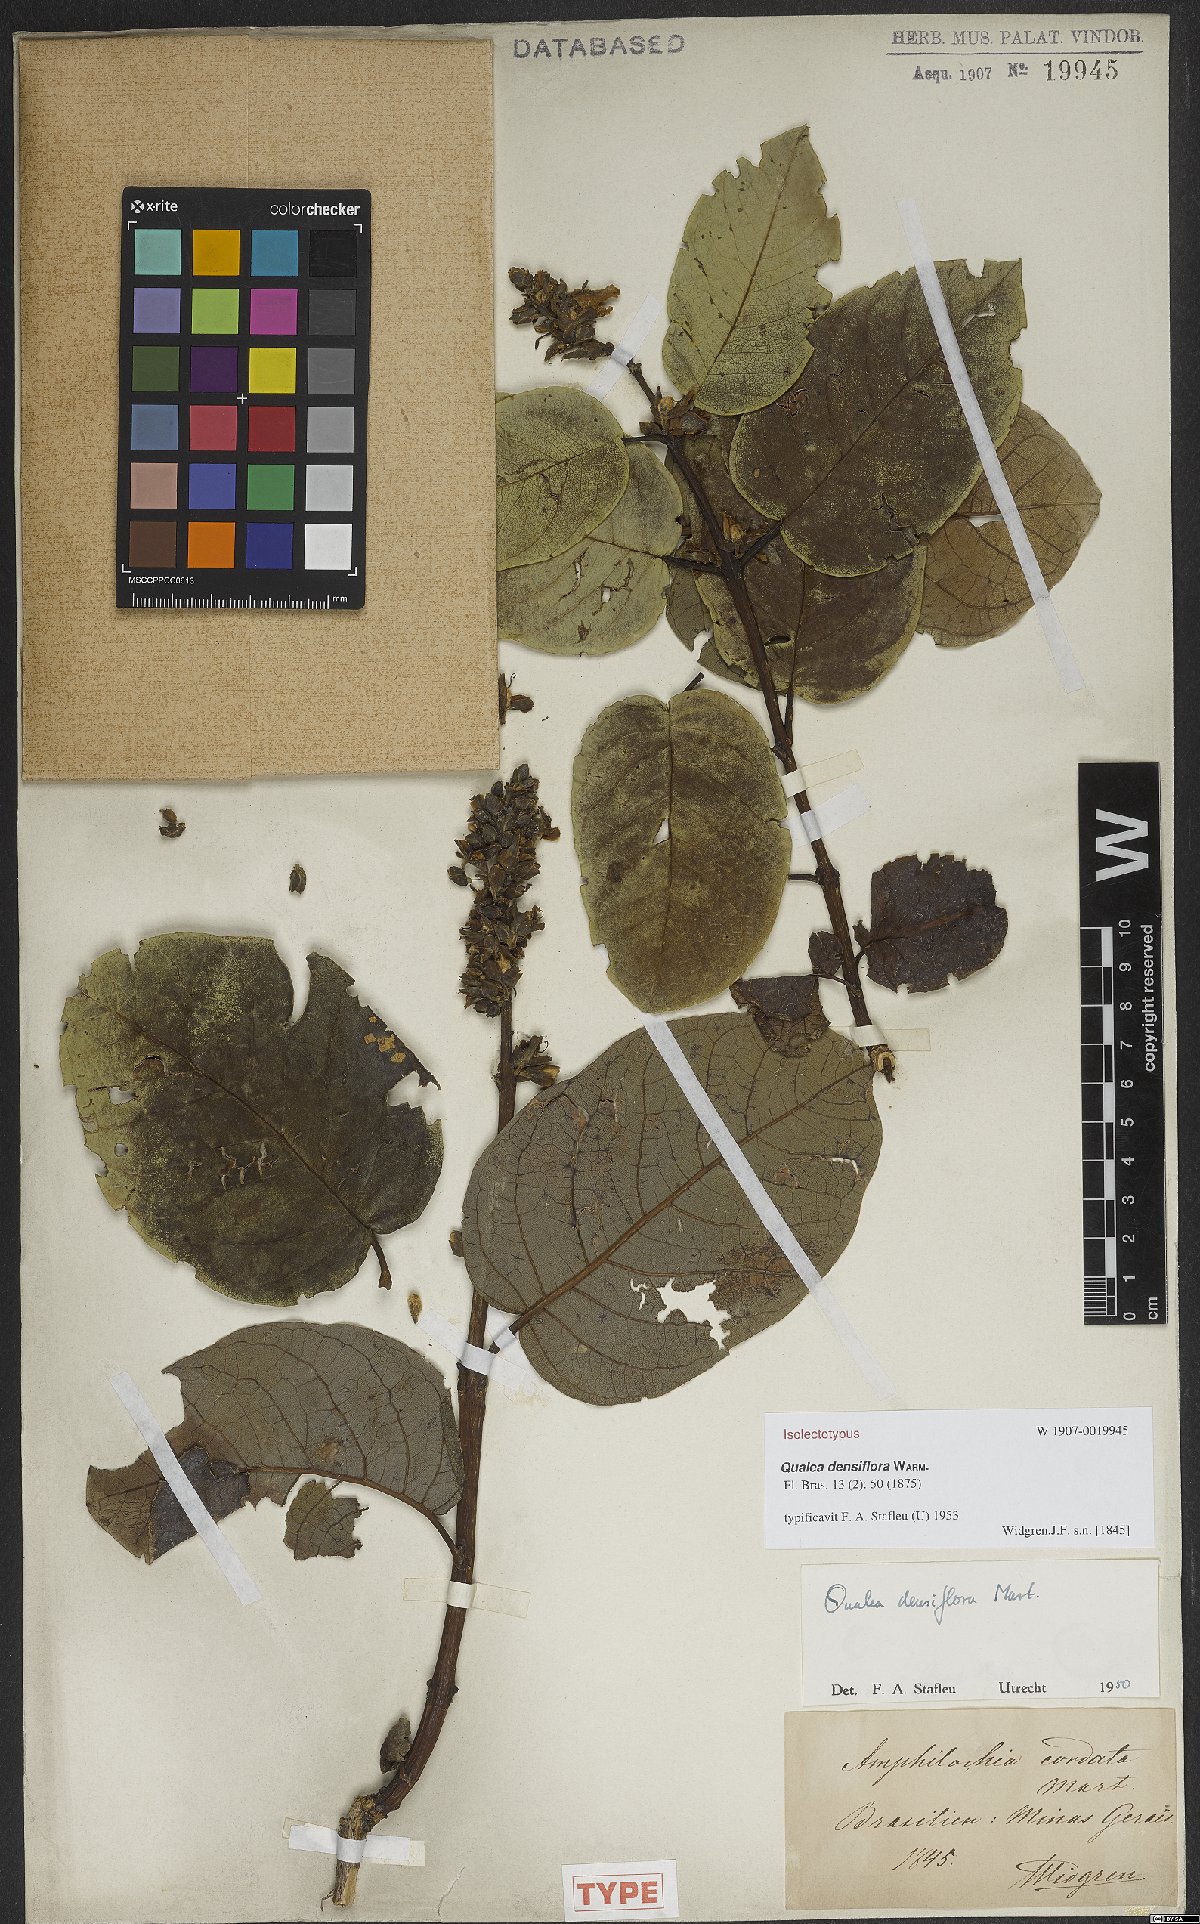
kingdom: Plantae
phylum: Tracheophyta
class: Magnoliopsida
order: Myrtales
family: Vochysiaceae
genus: Qualea
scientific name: Qualea densiflora
